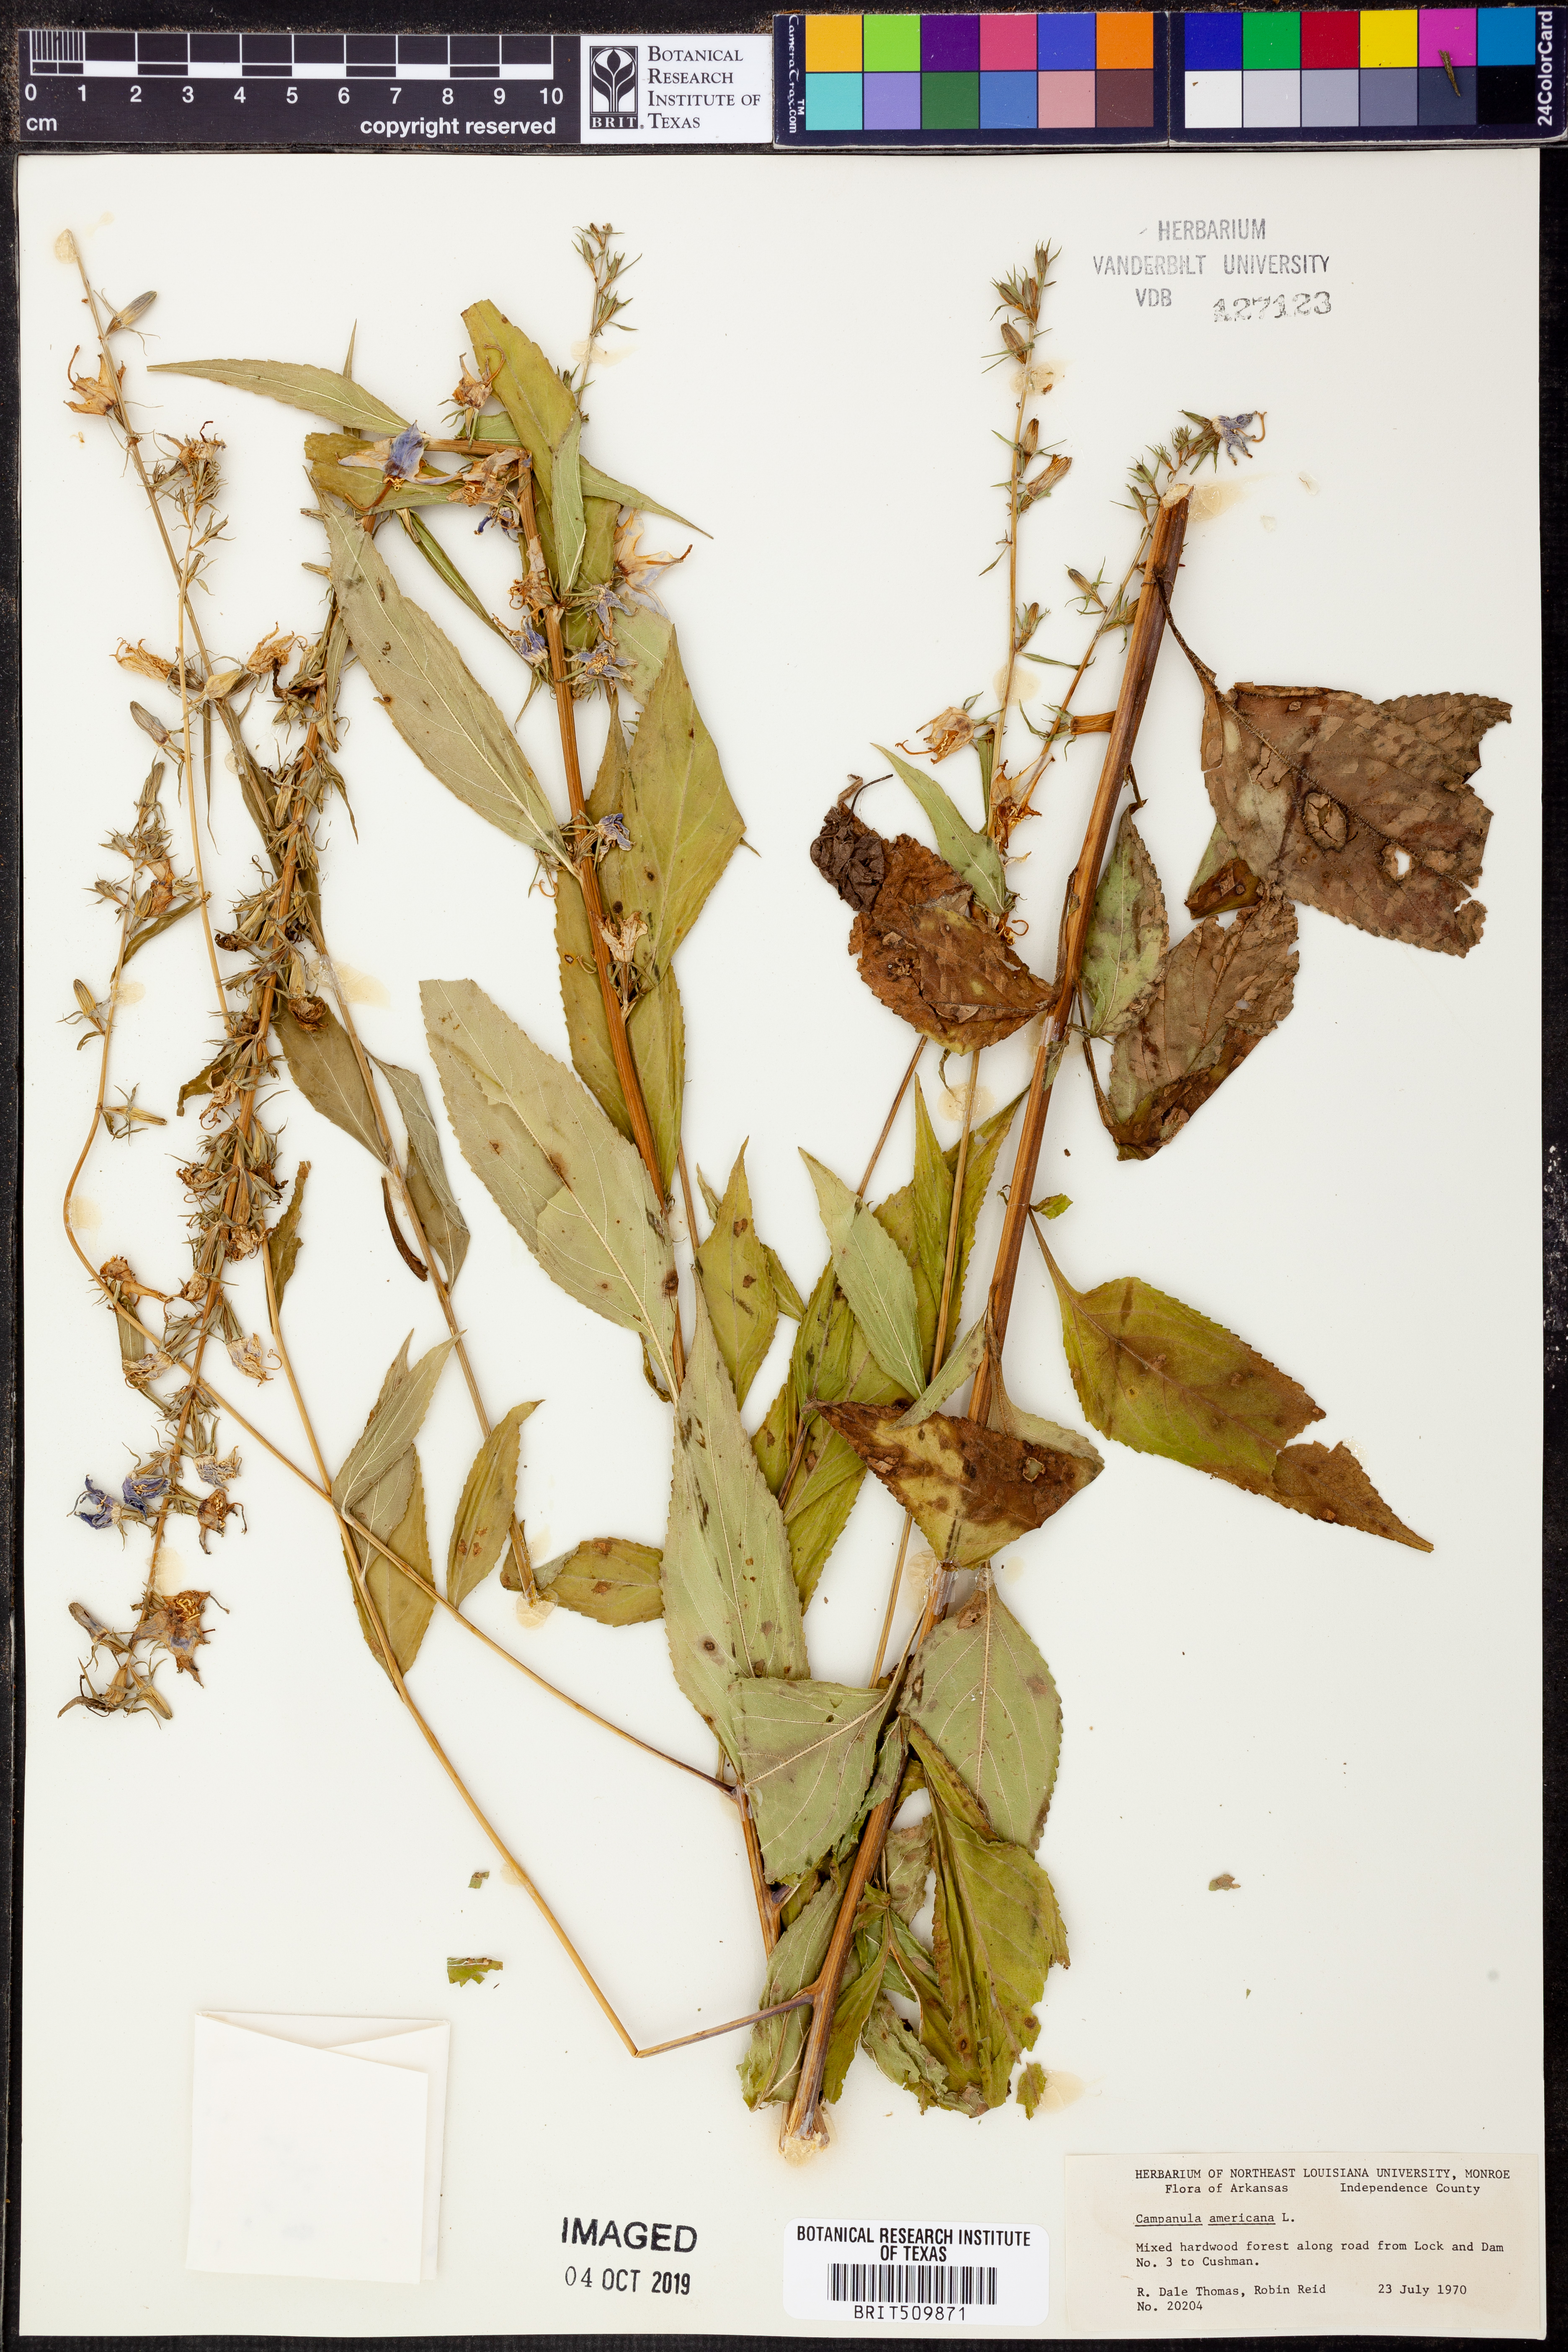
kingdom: Plantae
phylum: Tracheophyta
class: Magnoliopsida
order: Asterales
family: Campanulaceae
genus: Campanula
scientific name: Campanula americana
